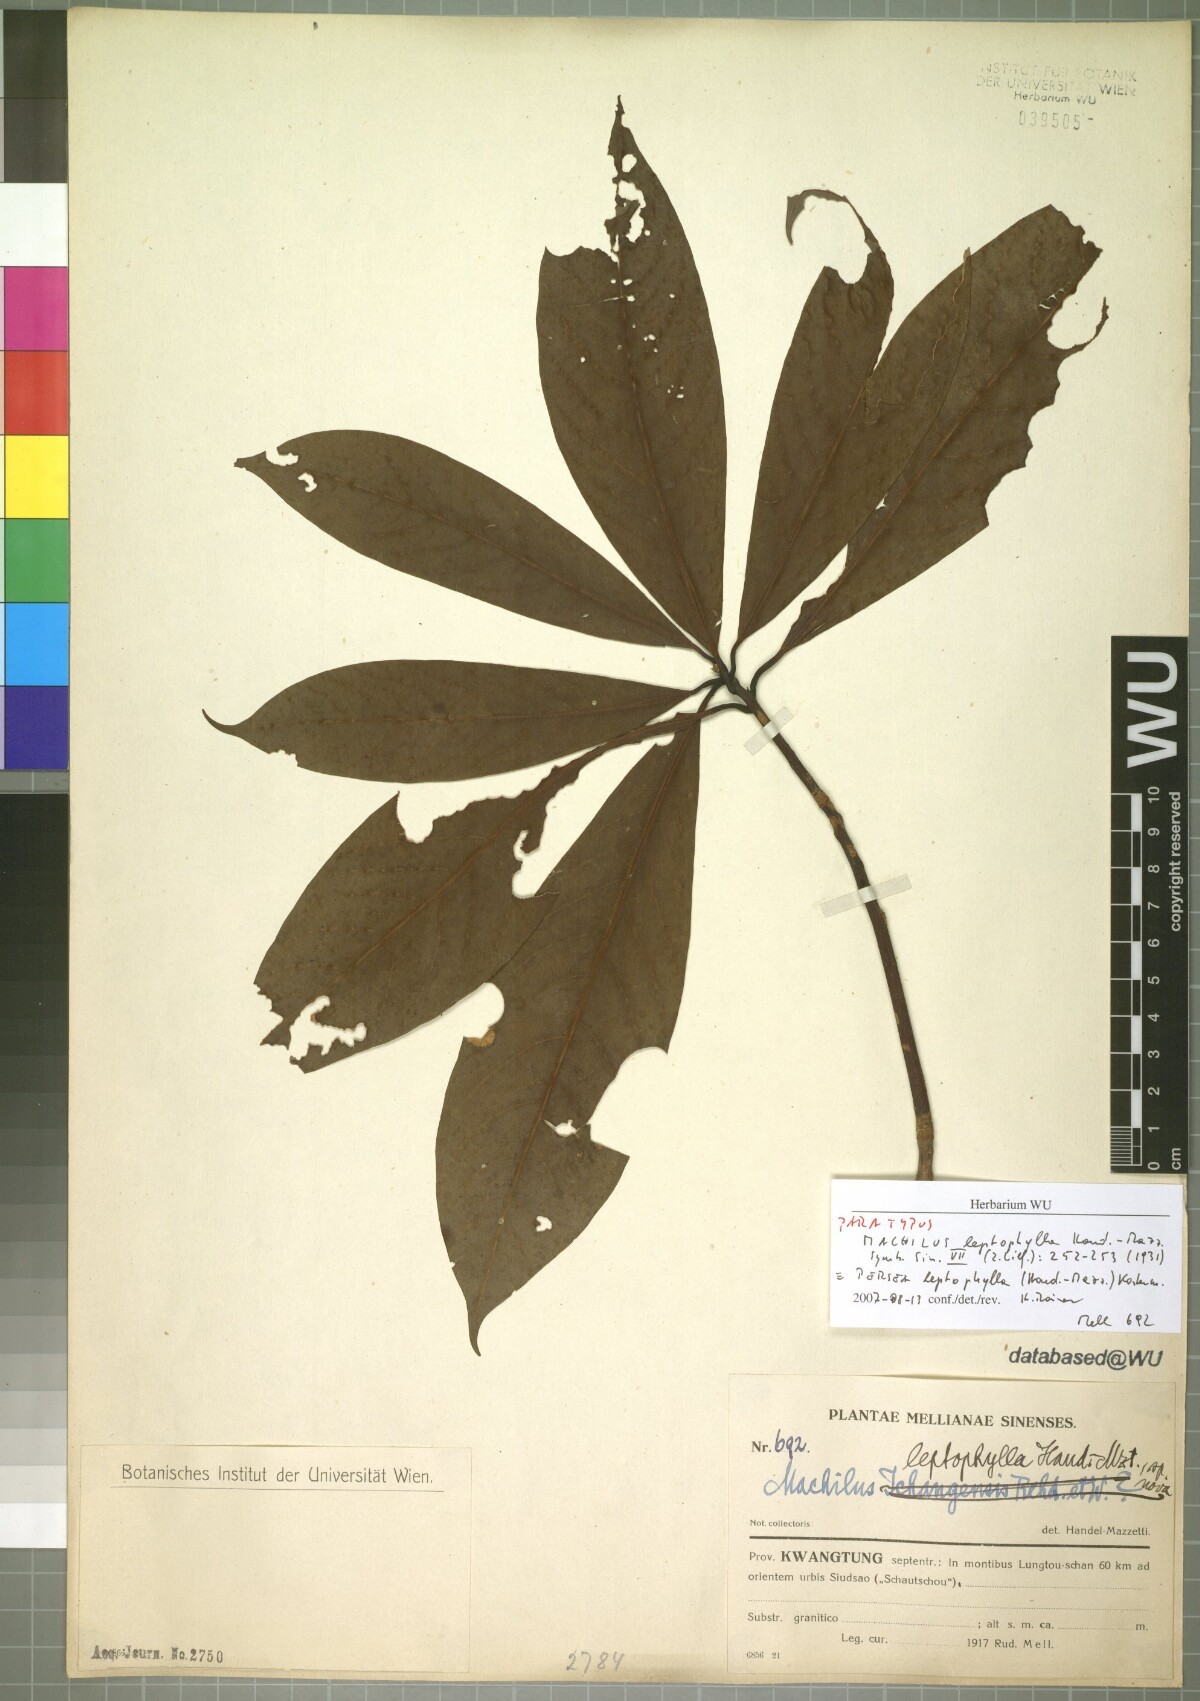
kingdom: Plantae
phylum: Tracheophyta
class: Magnoliopsida
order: Laurales
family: Lauraceae
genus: Machilus
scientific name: Machilus leptophylla
